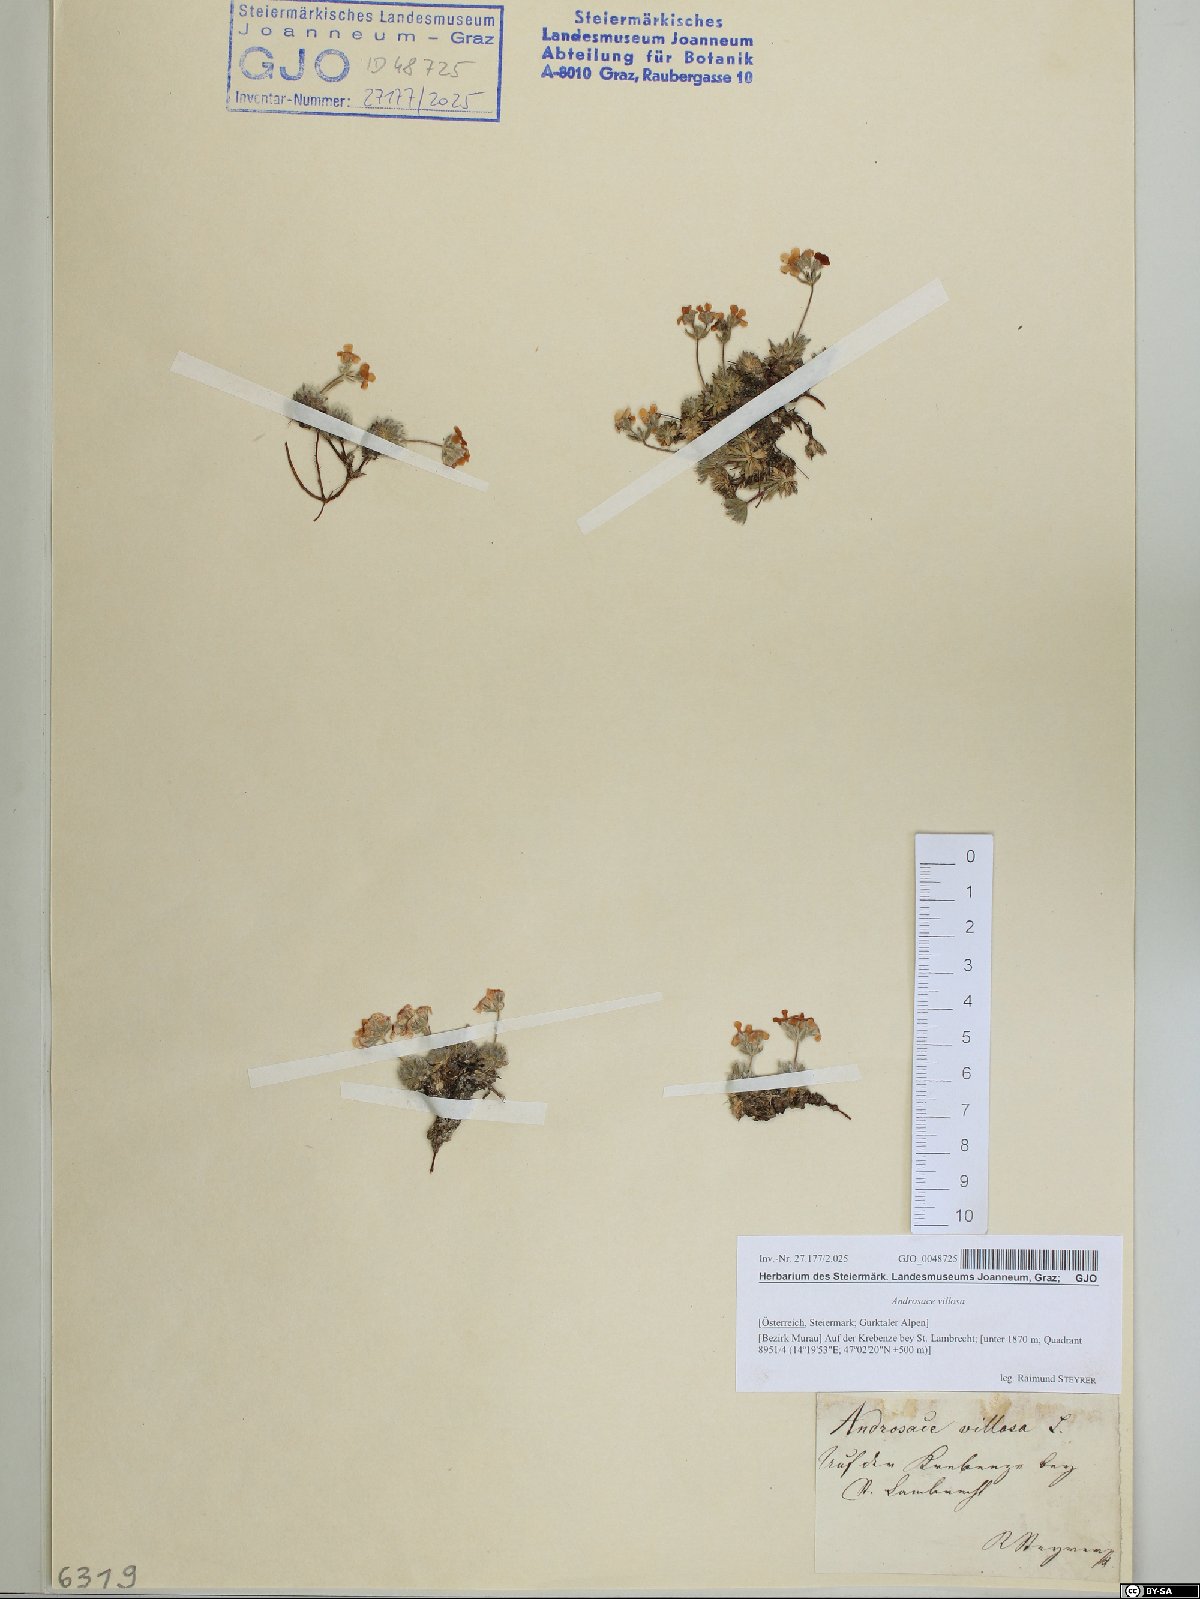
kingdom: Plantae
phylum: Tracheophyta
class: Magnoliopsida
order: Ericales
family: Primulaceae
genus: Androsace
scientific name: Androsace villosa
